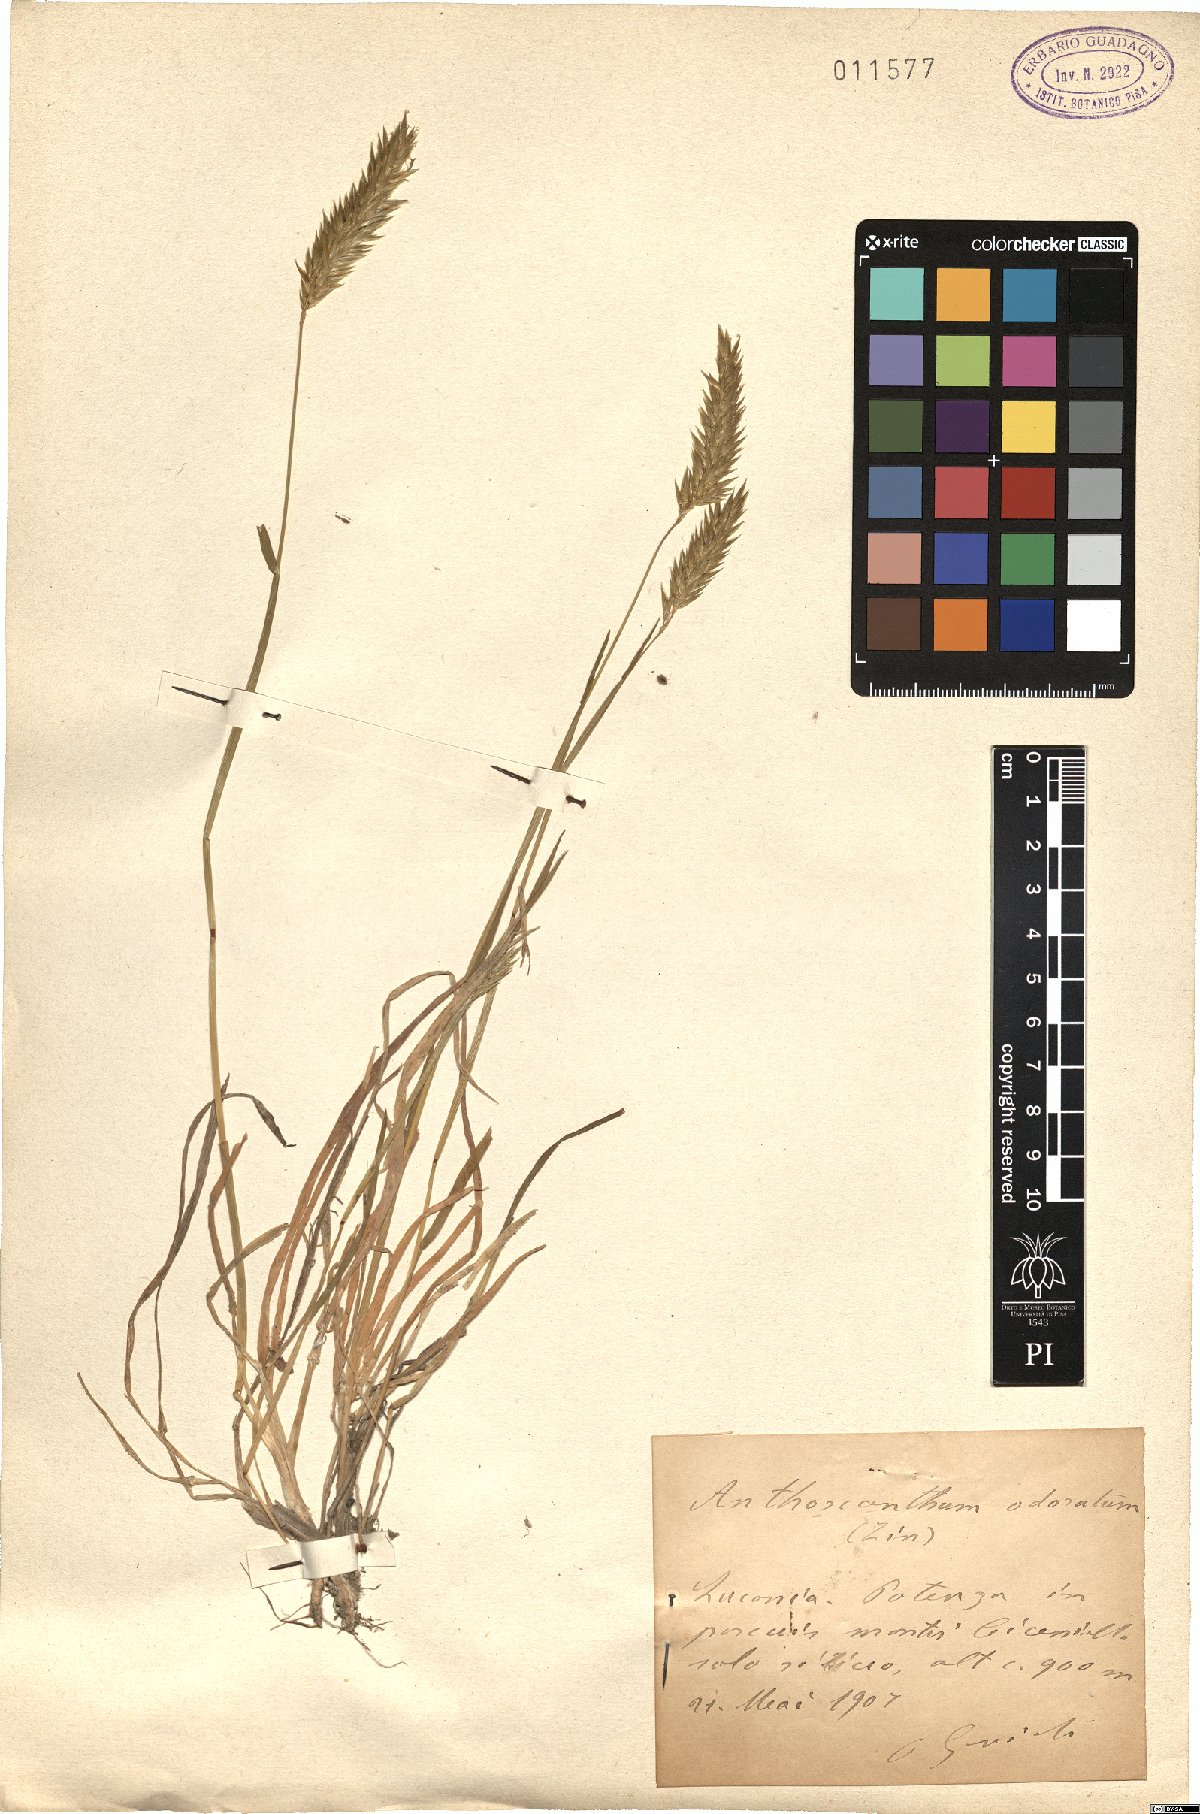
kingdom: Plantae
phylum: Tracheophyta
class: Liliopsida
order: Poales
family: Poaceae
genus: Anthoxanthum
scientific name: Anthoxanthum odoratum
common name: Sweet vernalgrass
